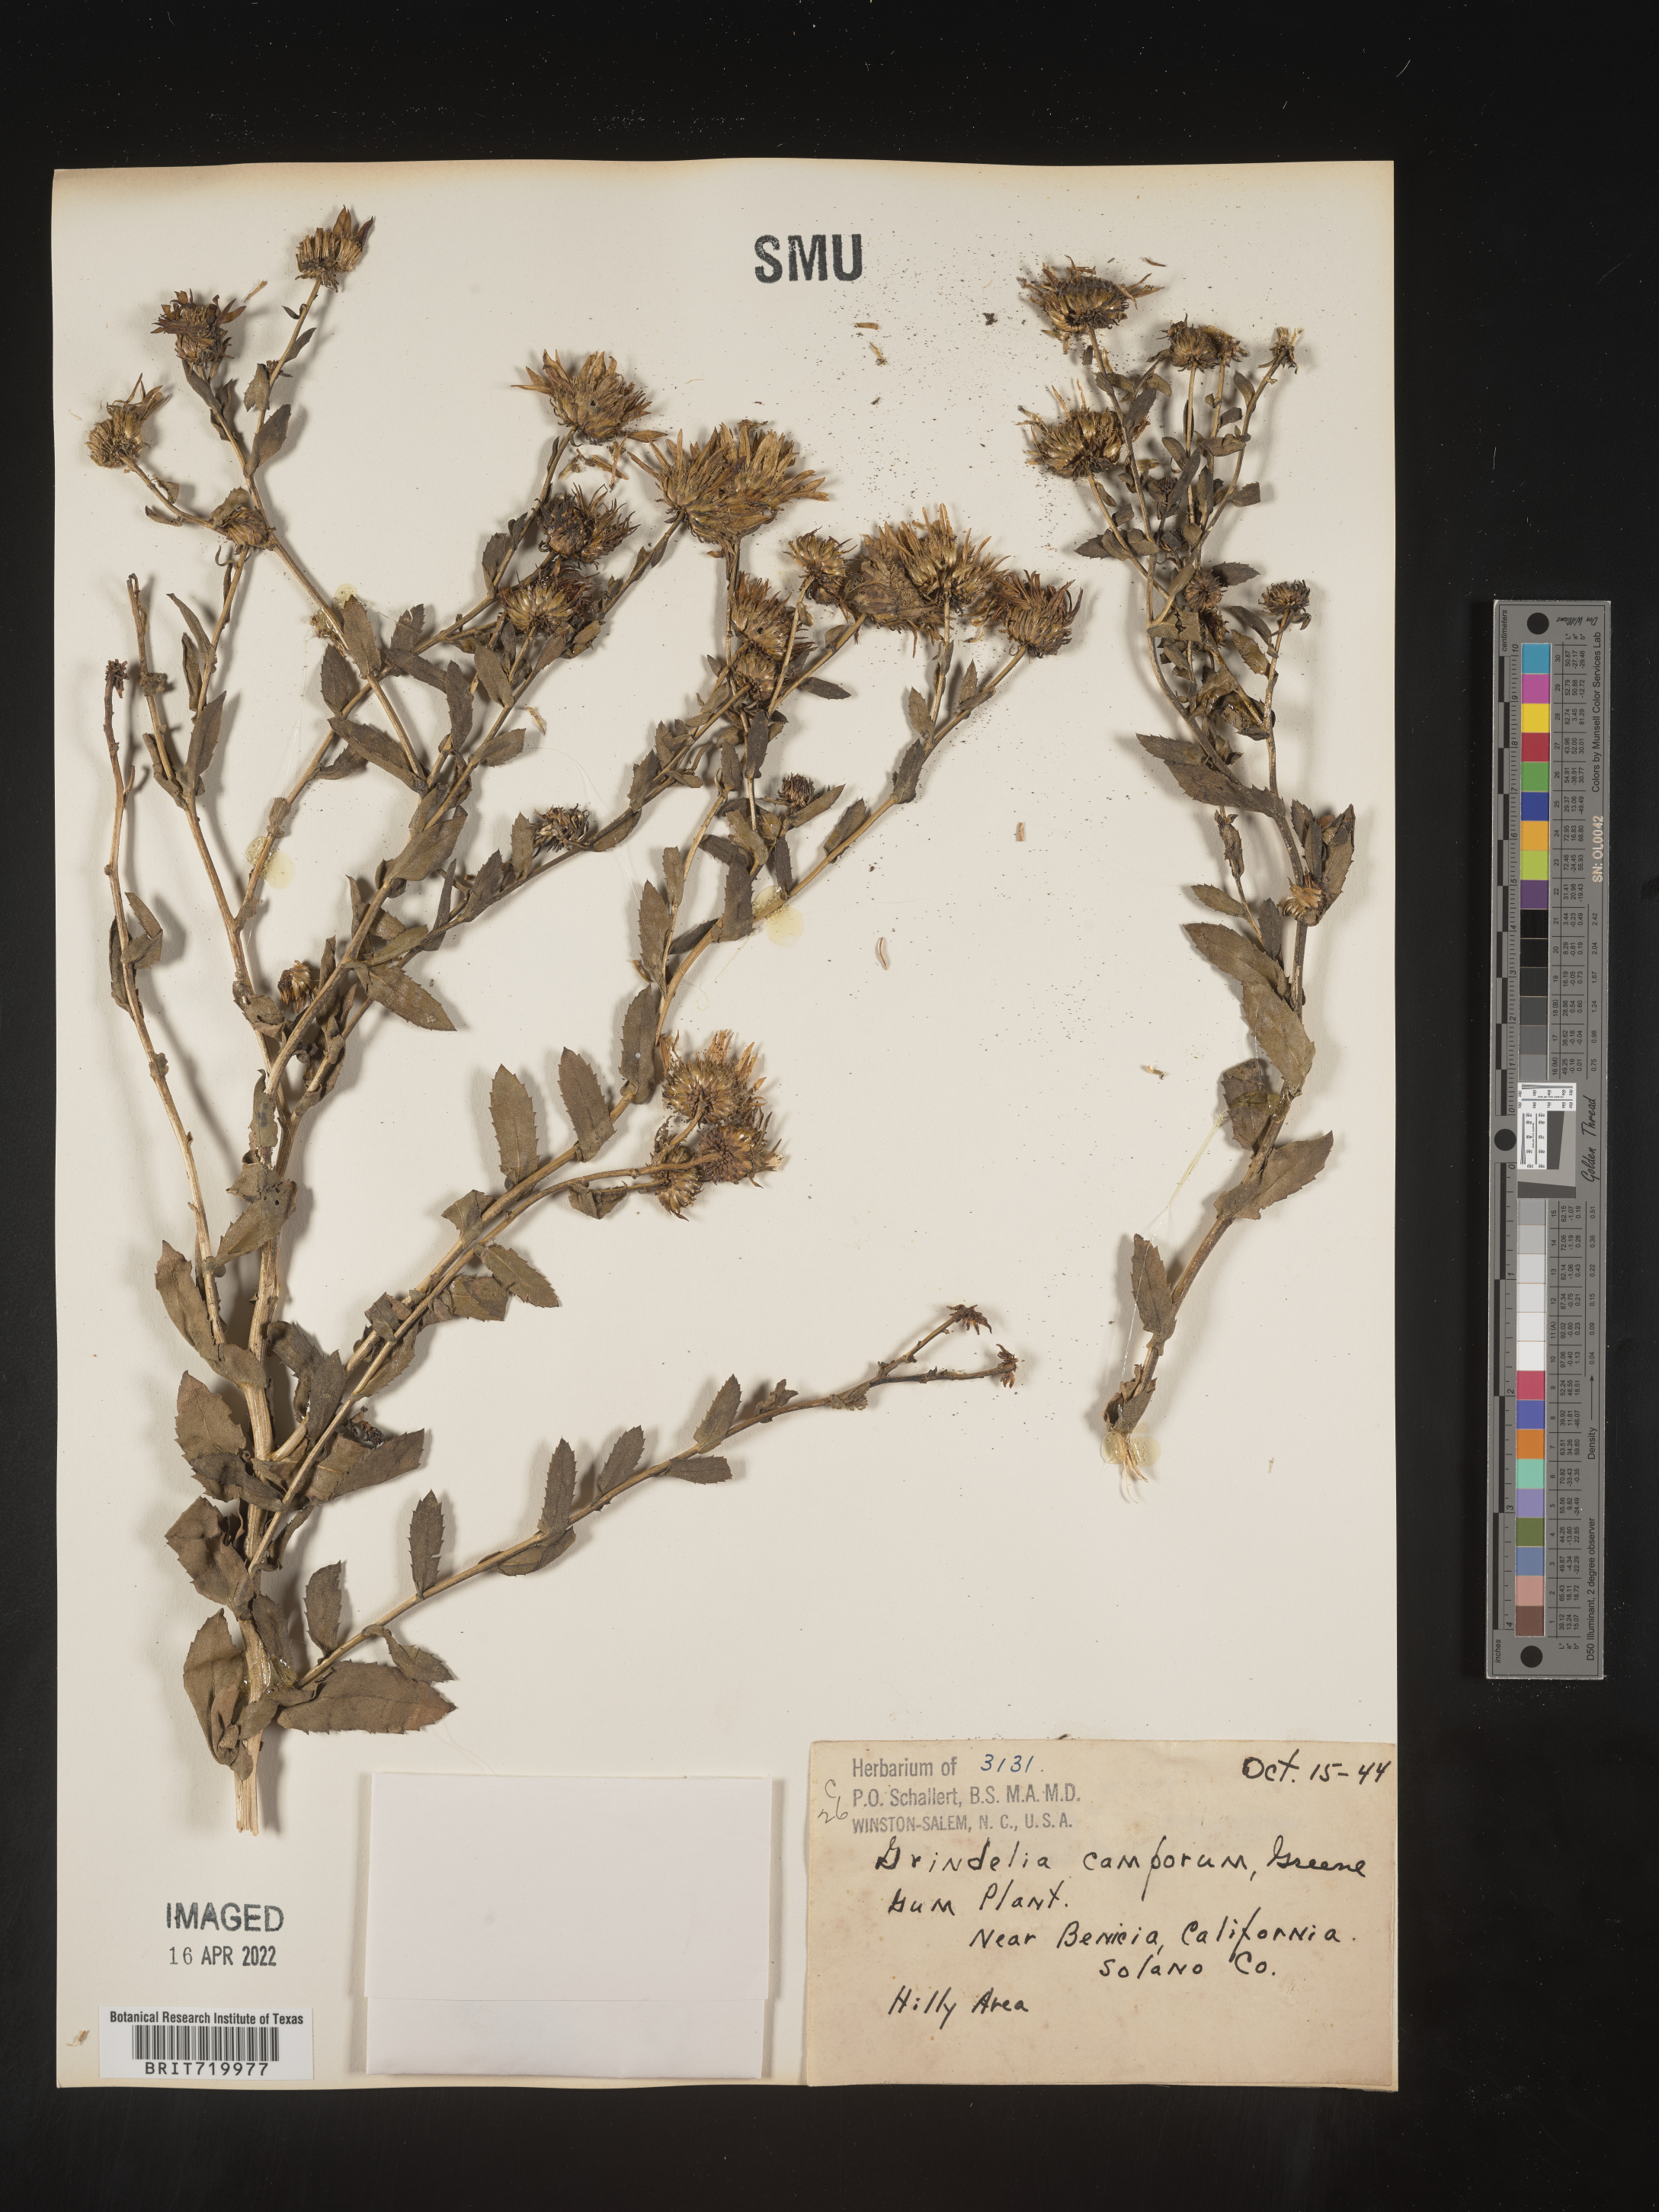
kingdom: Plantae
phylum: Tracheophyta
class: Magnoliopsida
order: Asterales
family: Asteraceae
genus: Grindelia
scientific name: Grindelia hirsutula
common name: Hairy gumweed
